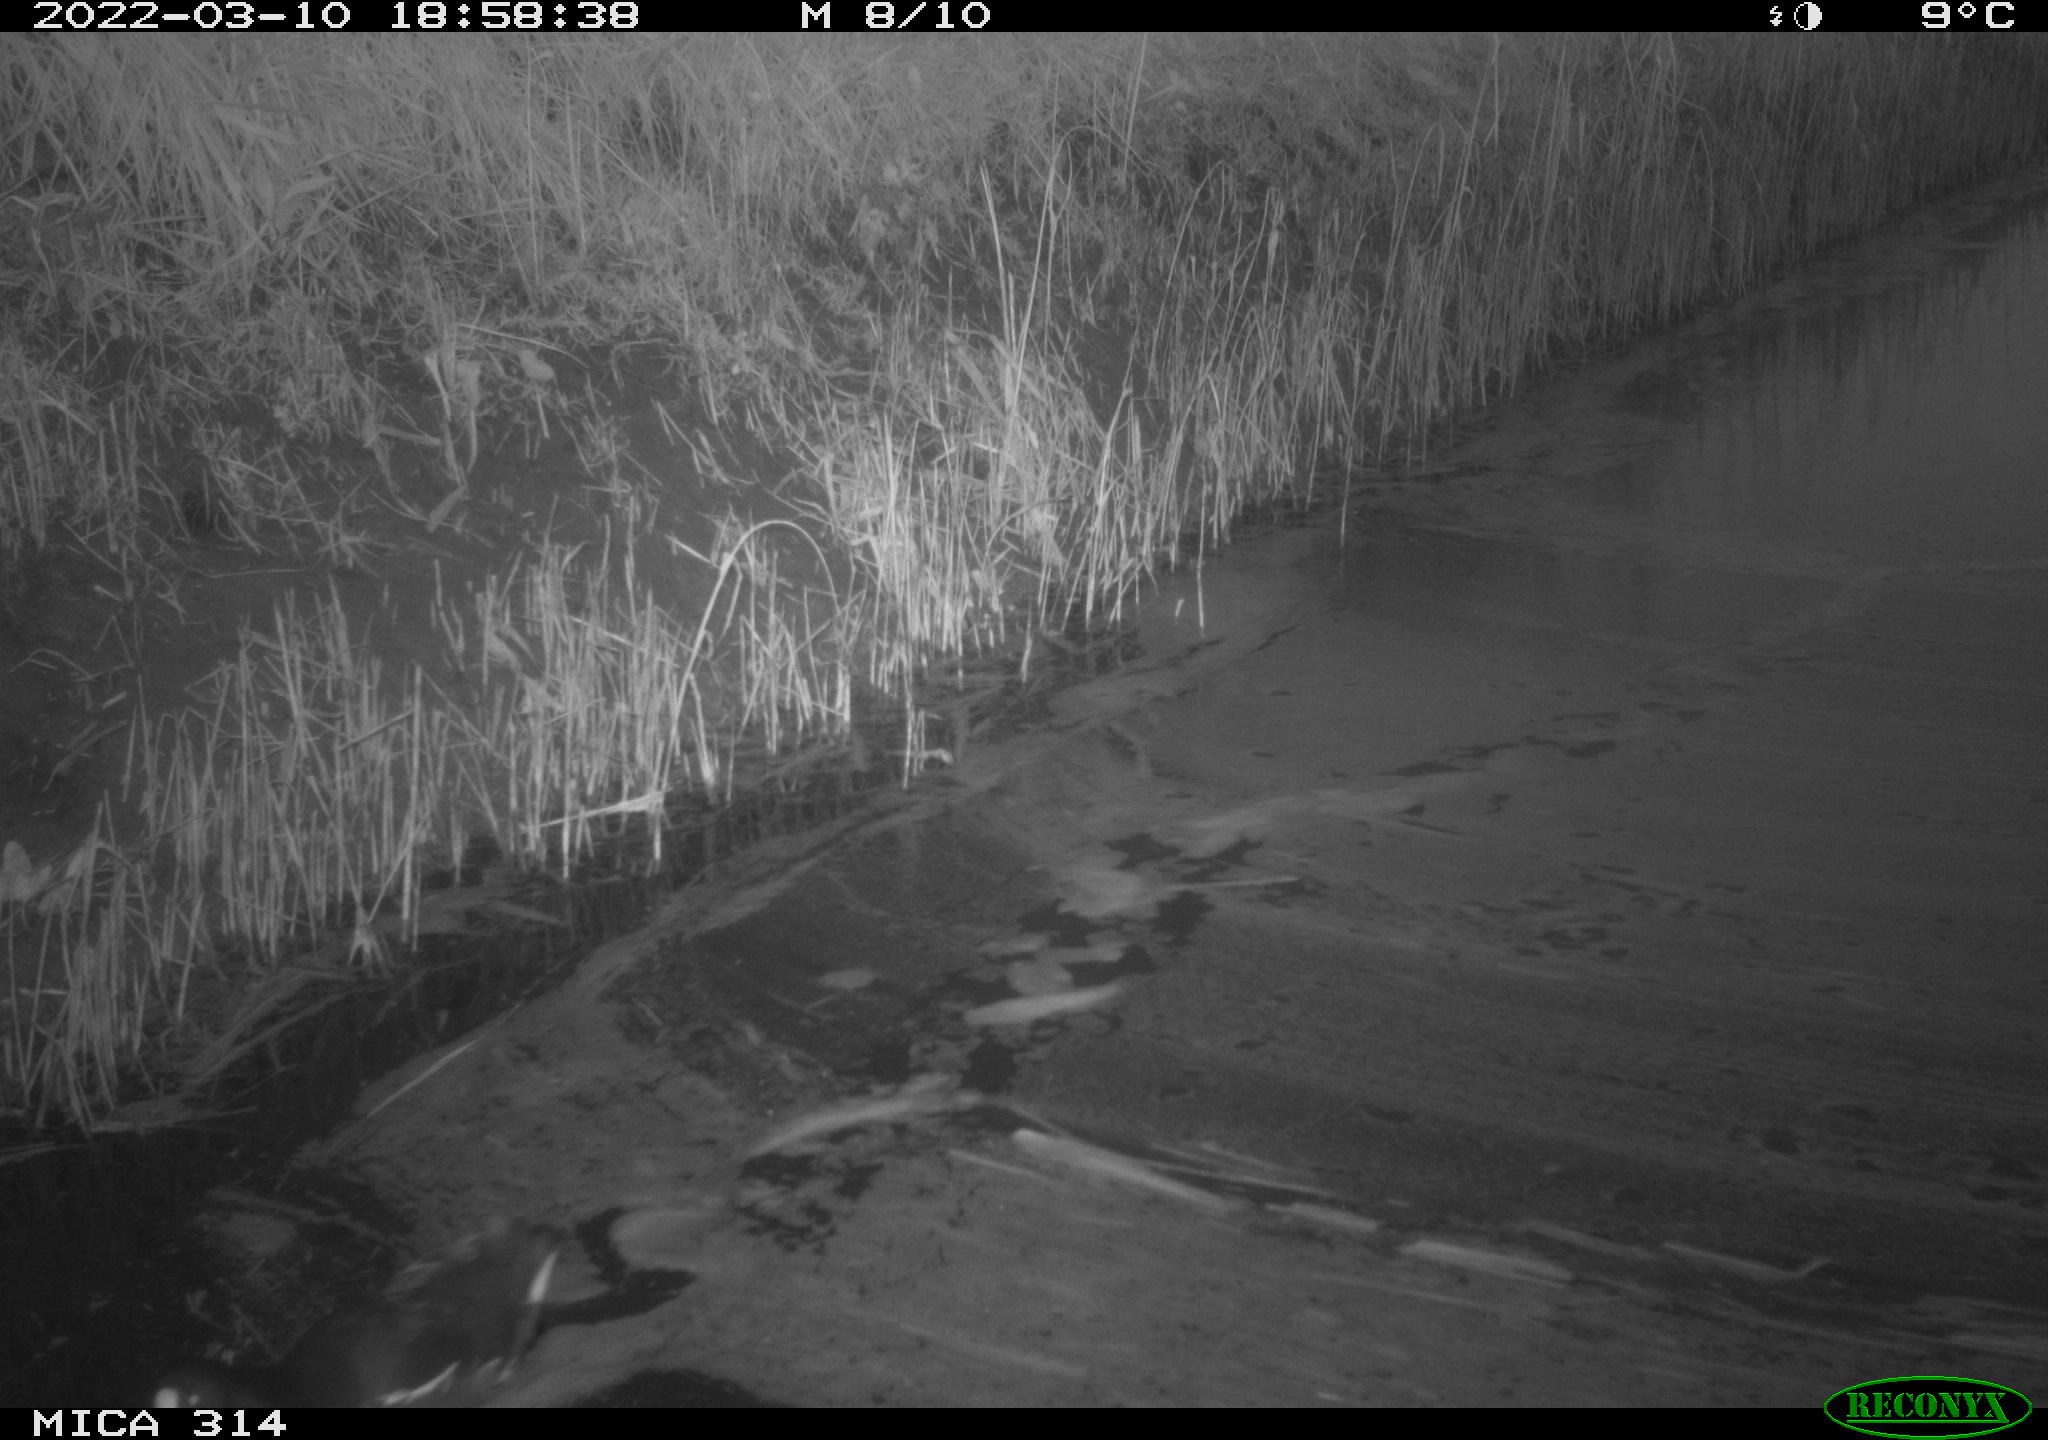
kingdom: Animalia
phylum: Chordata
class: Aves
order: Gruiformes
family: Rallidae
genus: Gallinula
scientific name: Gallinula chloropus
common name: Common moorhen
